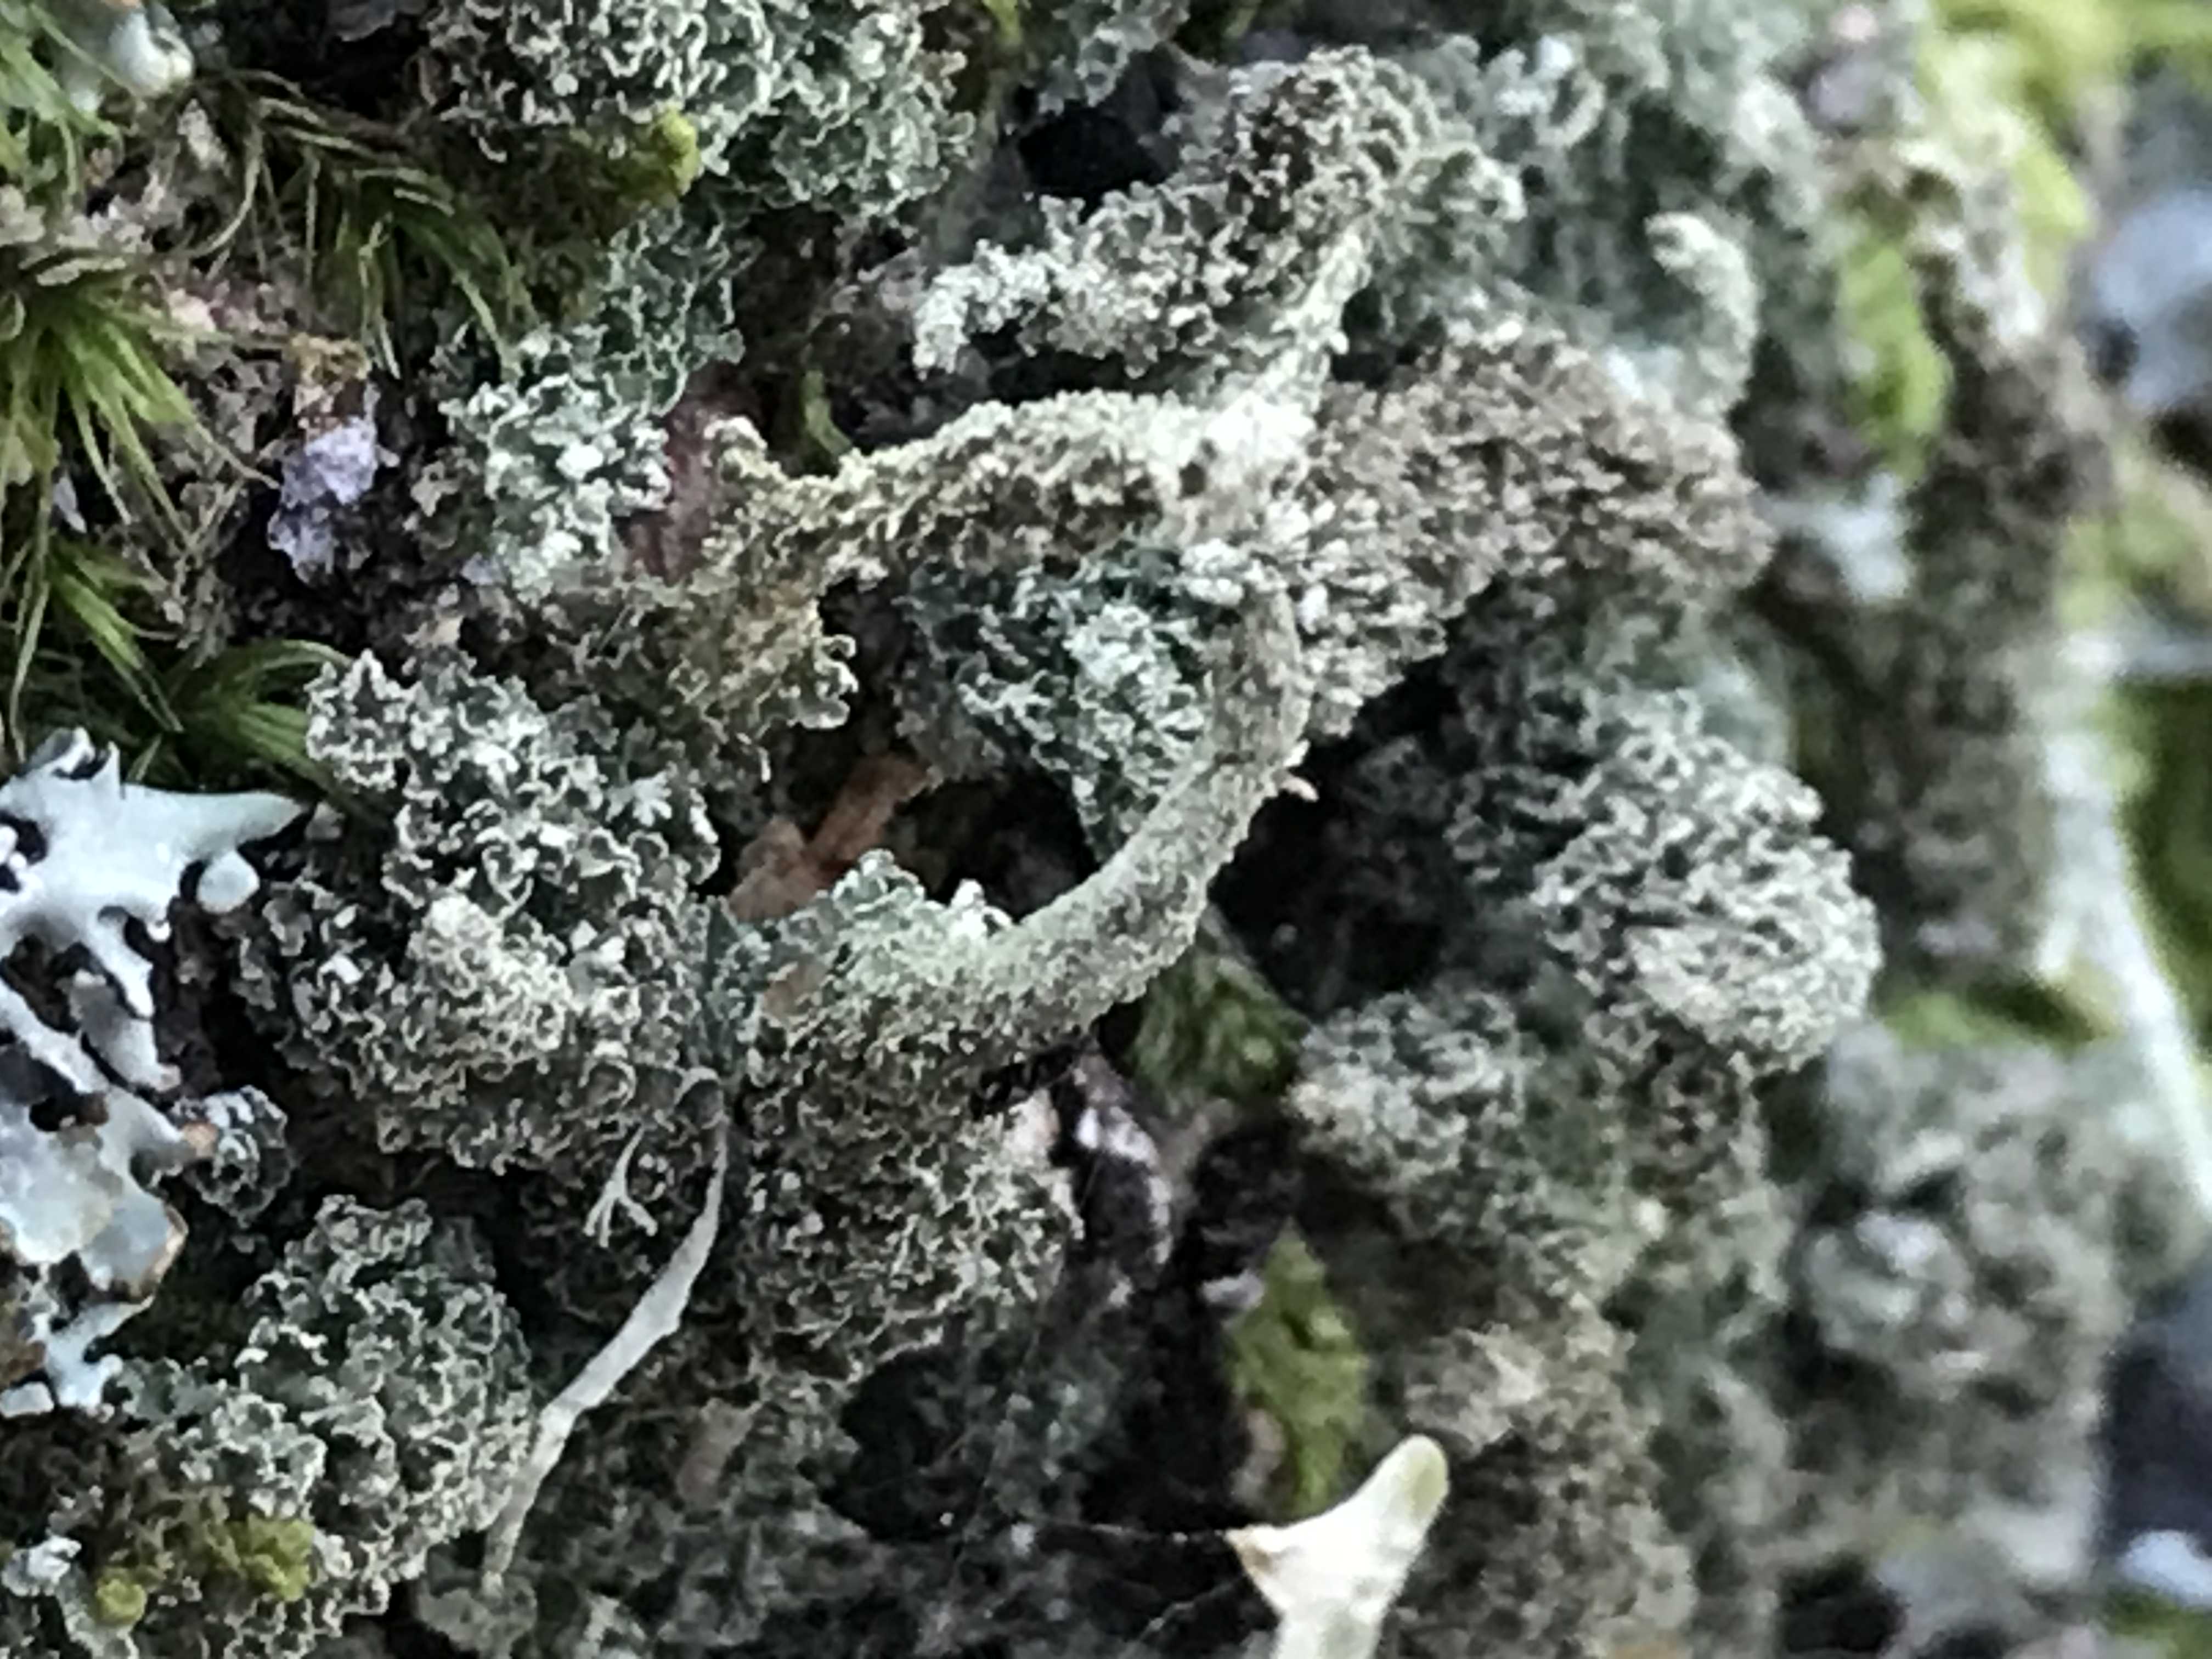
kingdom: Fungi
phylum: Ascomycota
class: Lecanoromycetes
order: Lecanorales
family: Cladoniaceae
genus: Cladonia
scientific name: Cladonia
